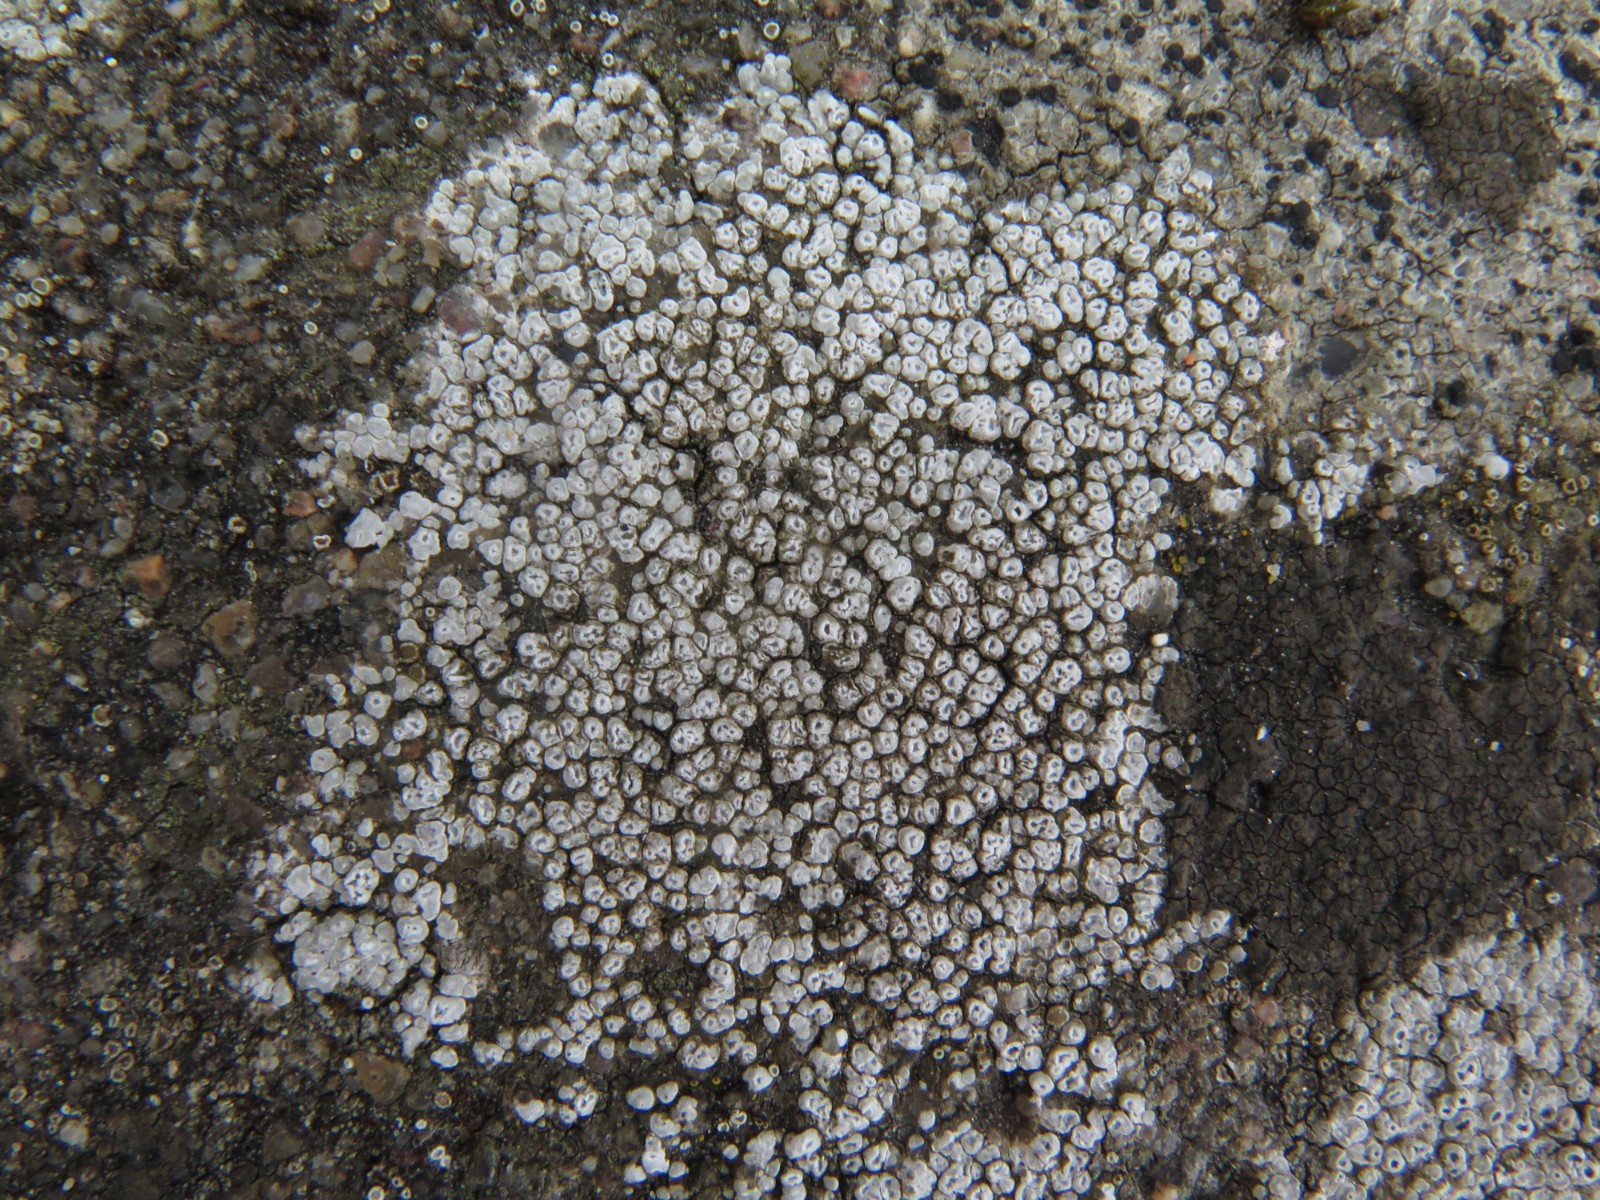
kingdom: Fungi
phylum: Ascomycota
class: Lecanoromycetes
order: Pertusariales
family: Megasporaceae
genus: Circinaria
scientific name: Circinaria contorta
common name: indviklet hulskivelav
